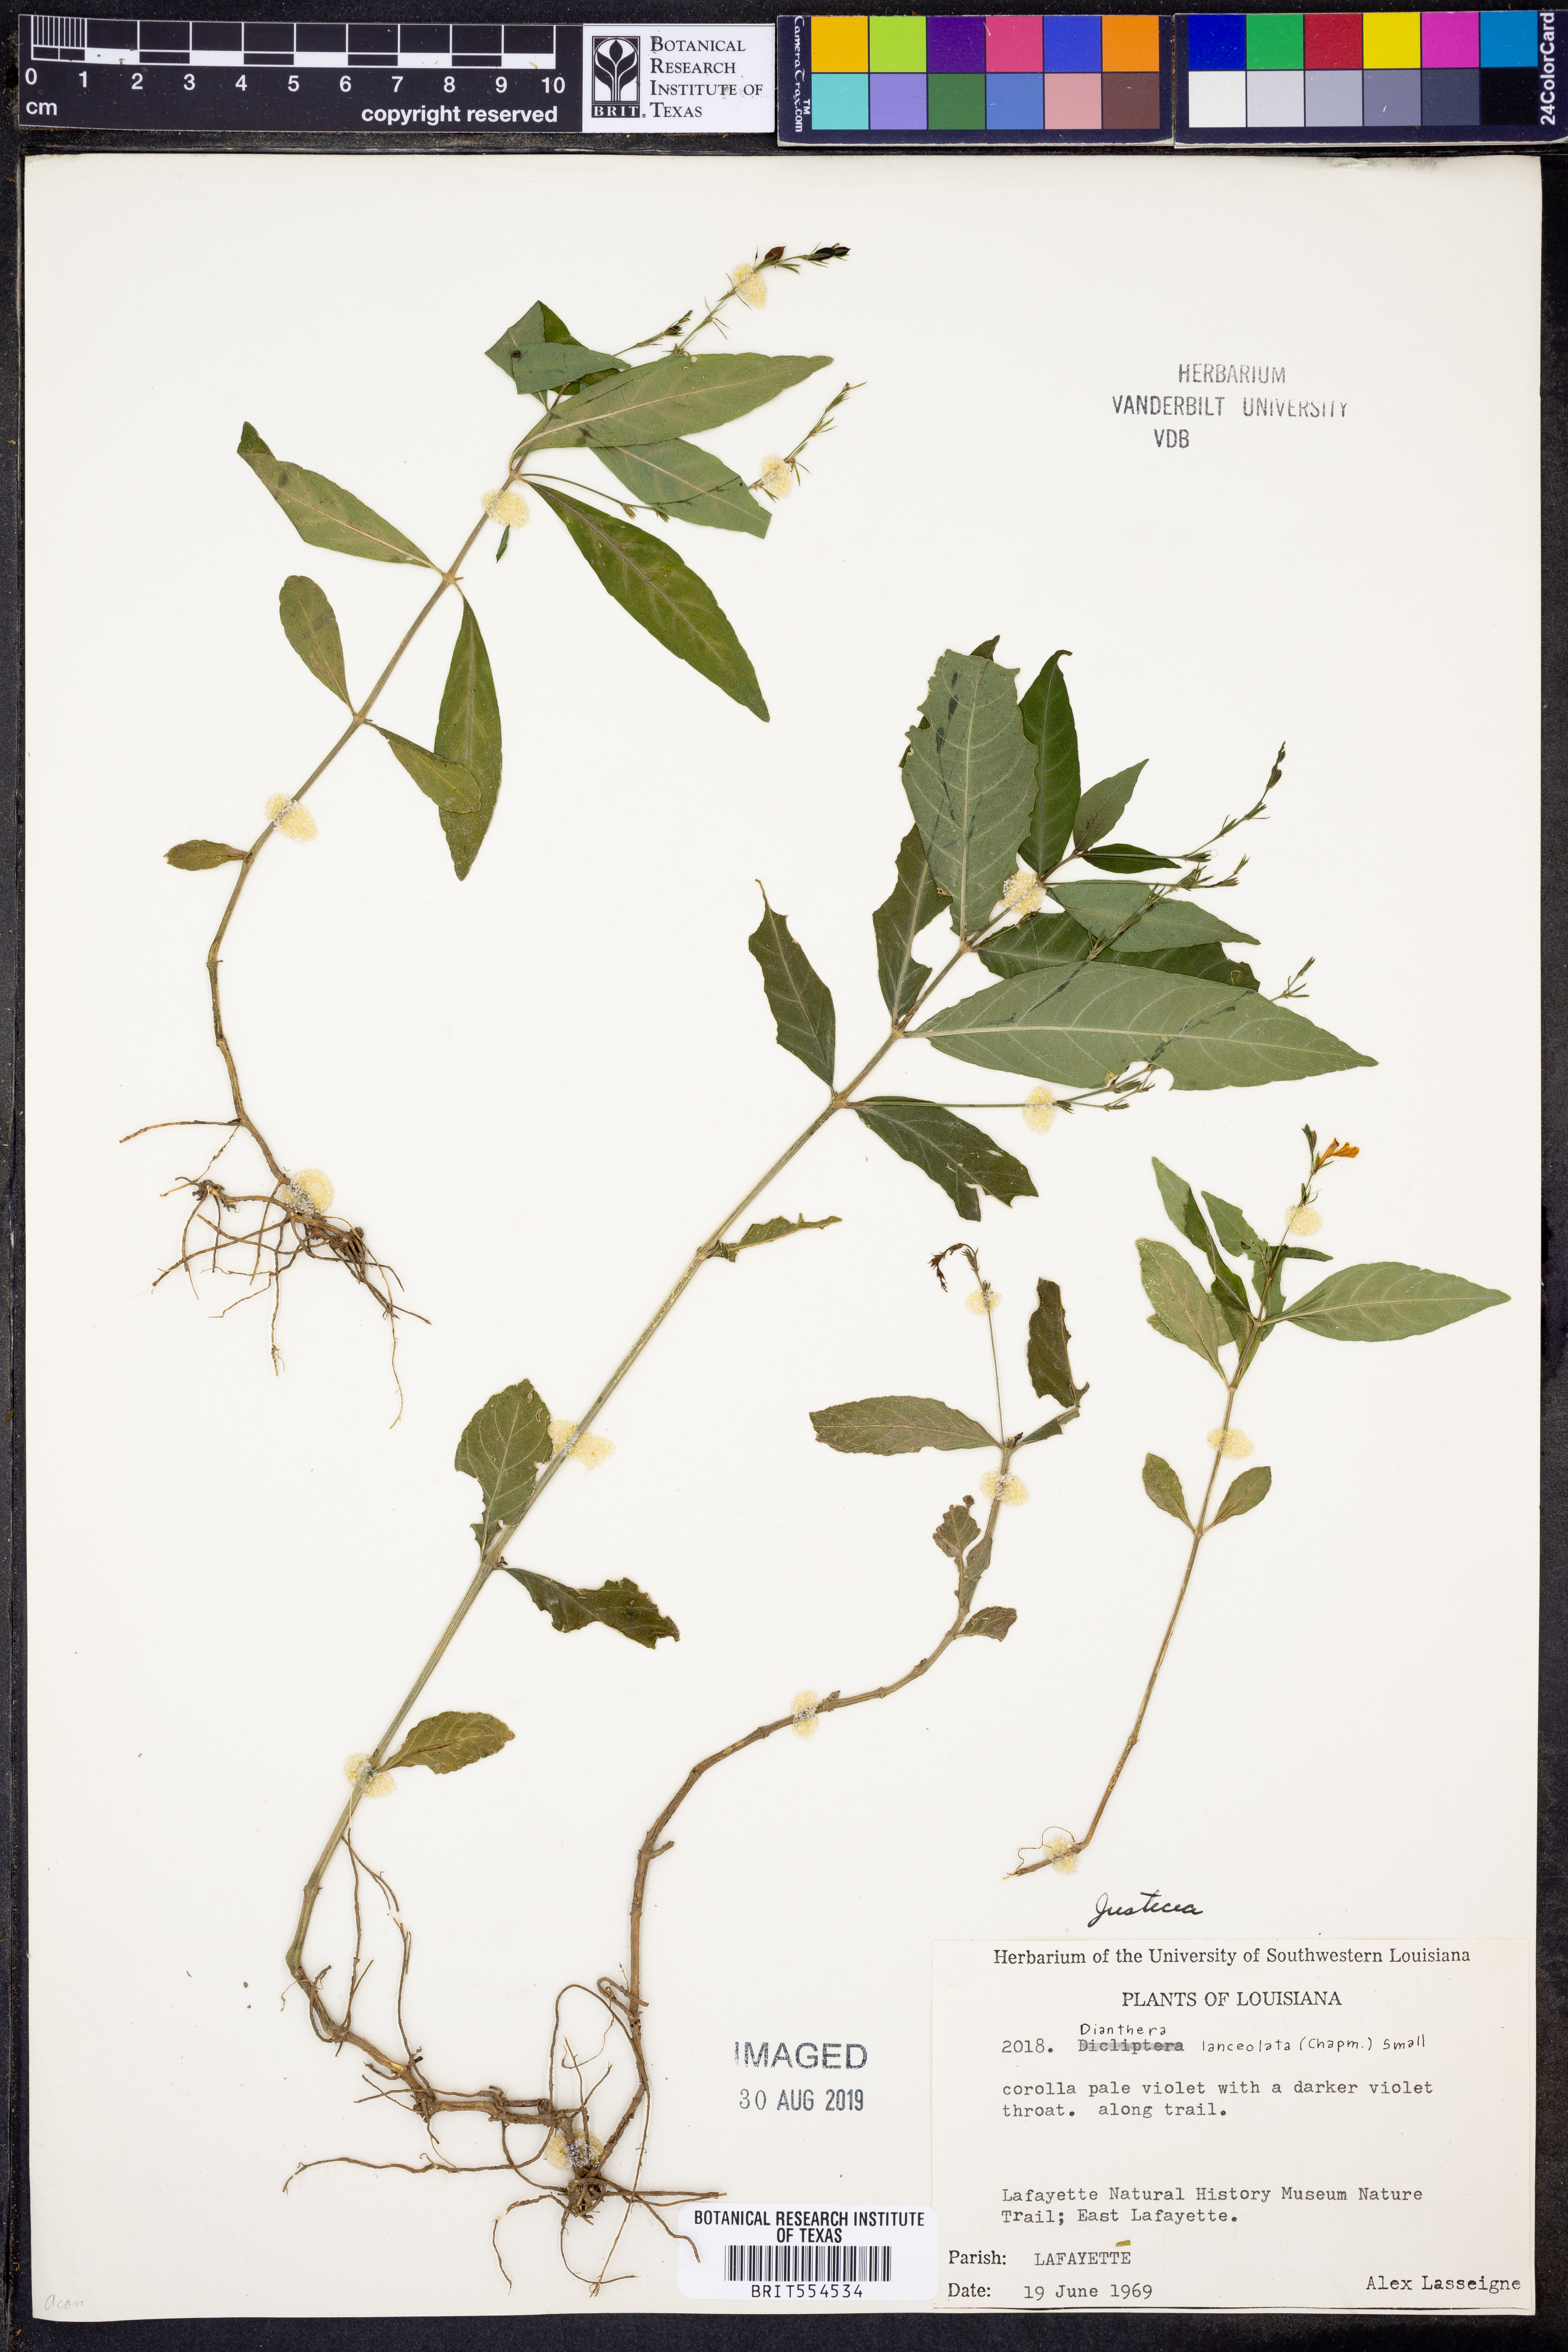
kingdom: Plantae
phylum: Tracheophyta
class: Magnoliopsida
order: Lamiales
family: Acanthaceae
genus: Justicia
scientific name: Justicia lanceolata
